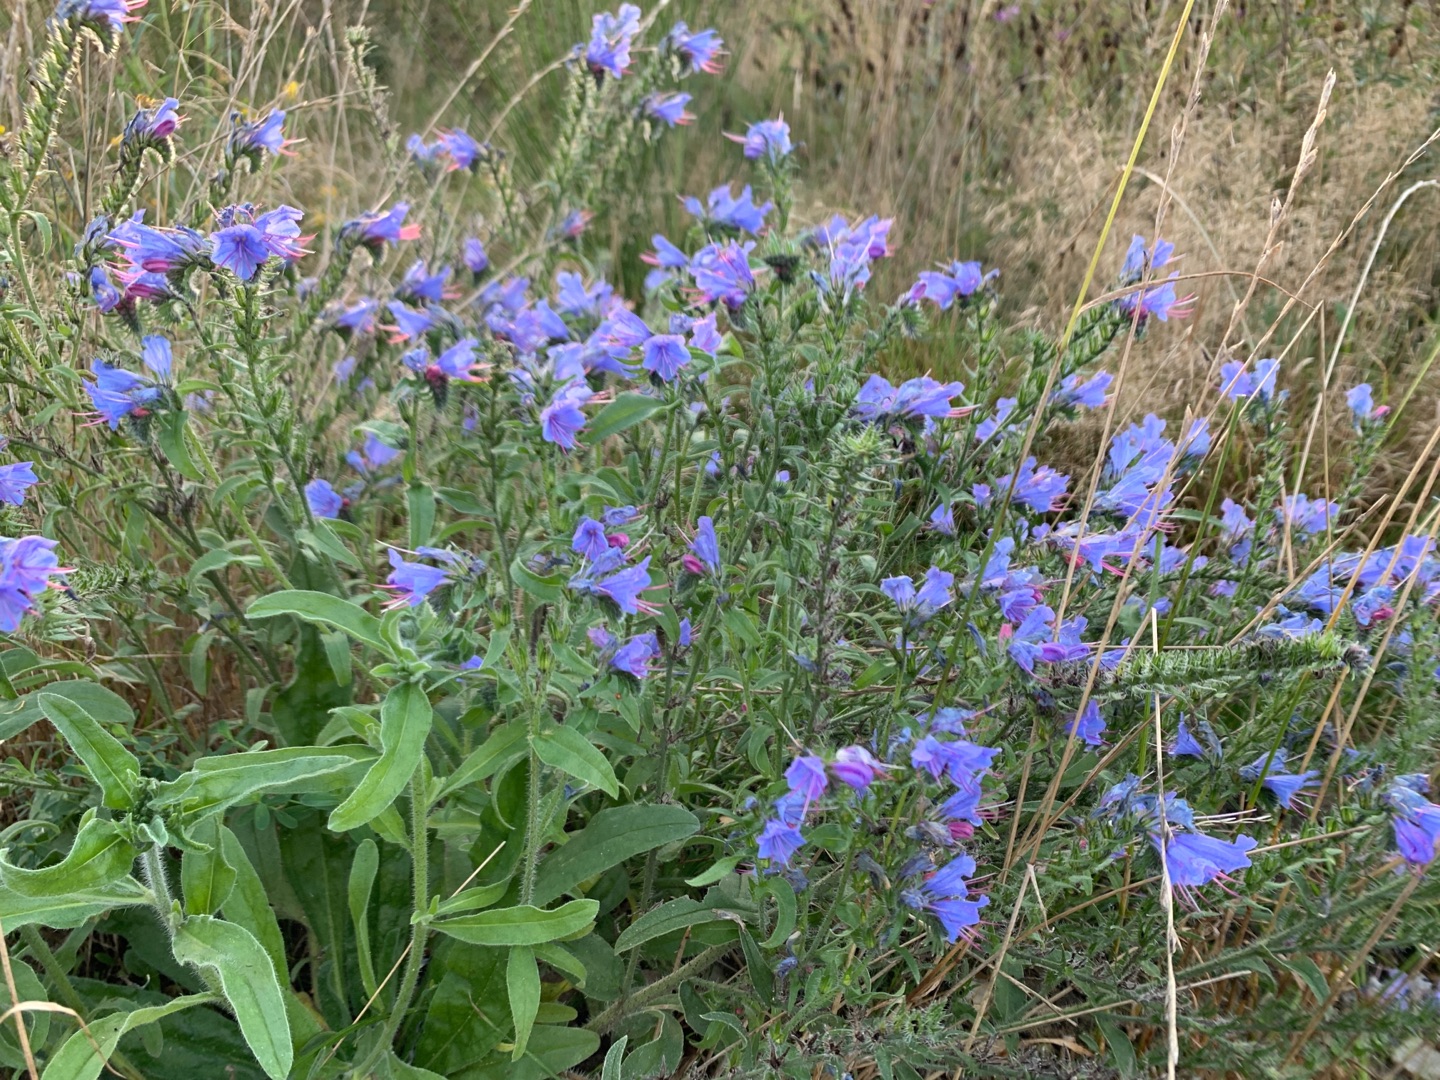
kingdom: Plantae
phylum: Tracheophyta
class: Magnoliopsida
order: Boraginales
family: Boraginaceae
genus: Echium
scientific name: Echium vulgare
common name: Slangehoved
